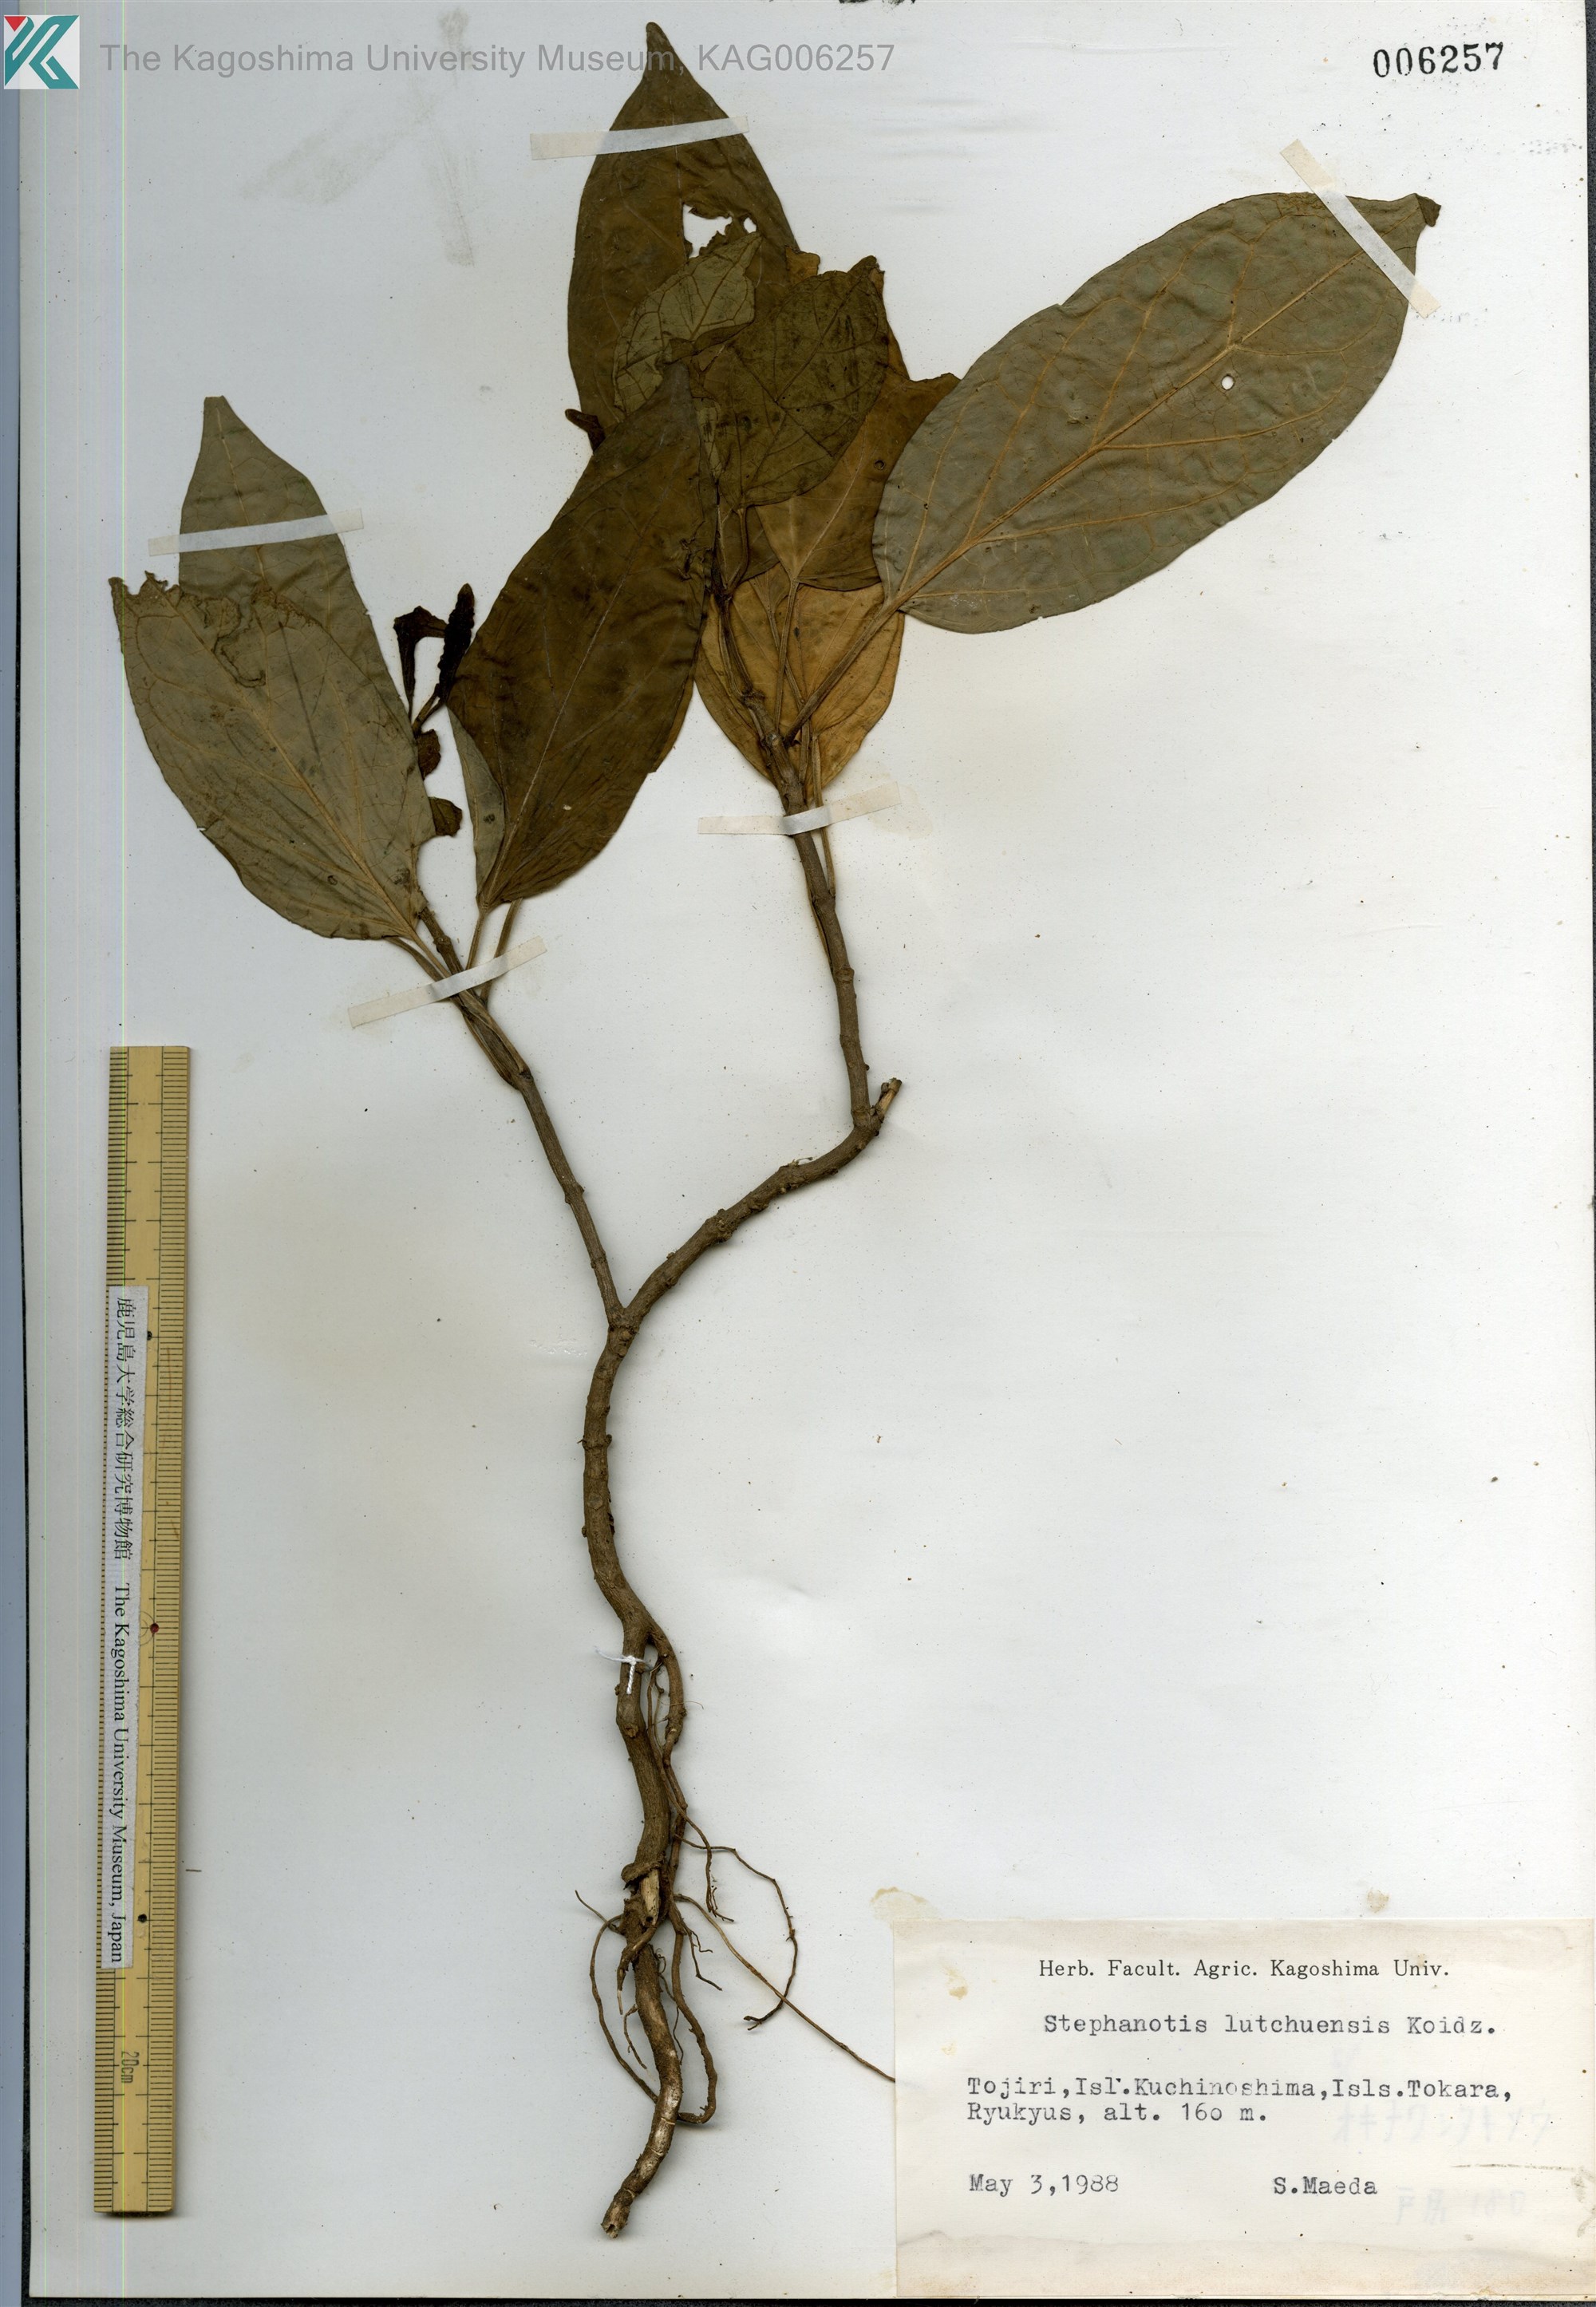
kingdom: Plantae
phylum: Tracheophyta
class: Magnoliopsida
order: Gentianales
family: Apocynaceae
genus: Jasminanthes
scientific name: Jasminanthes mucronata
